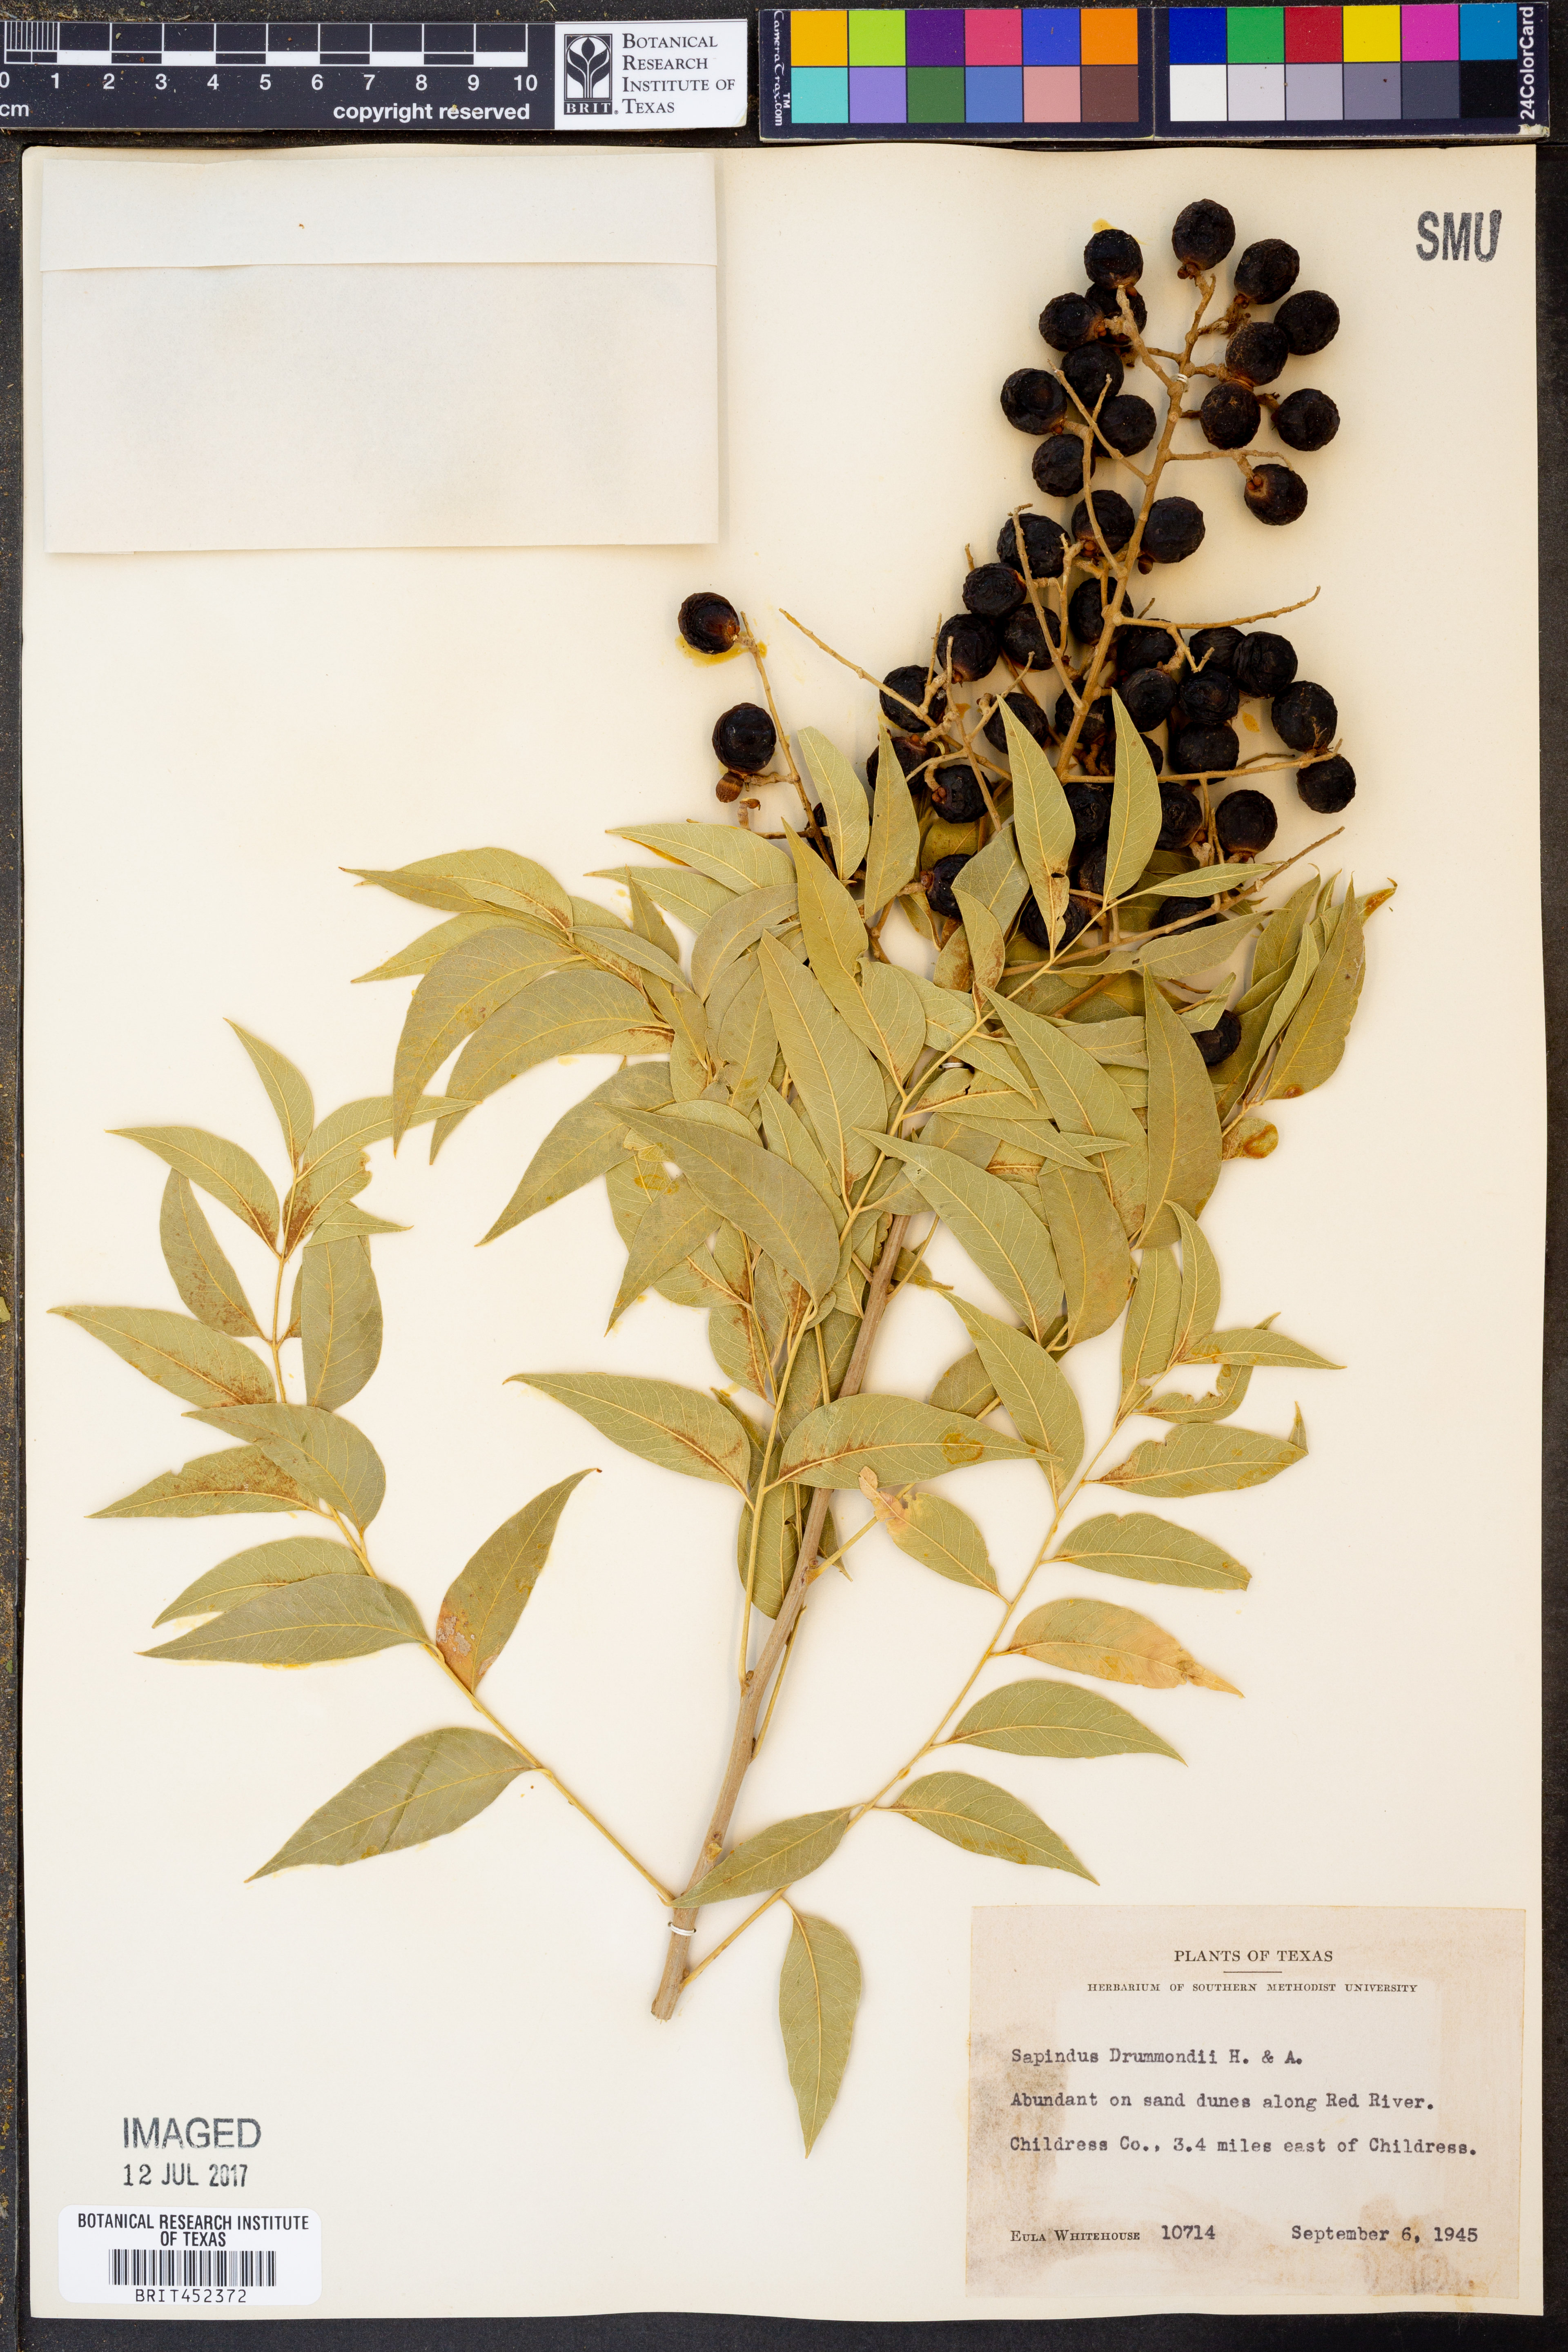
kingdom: Plantae
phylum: Tracheophyta
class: Magnoliopsida
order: Sapindales
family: Sapindaceae
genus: Sapindus
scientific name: Sapindus drummondii
